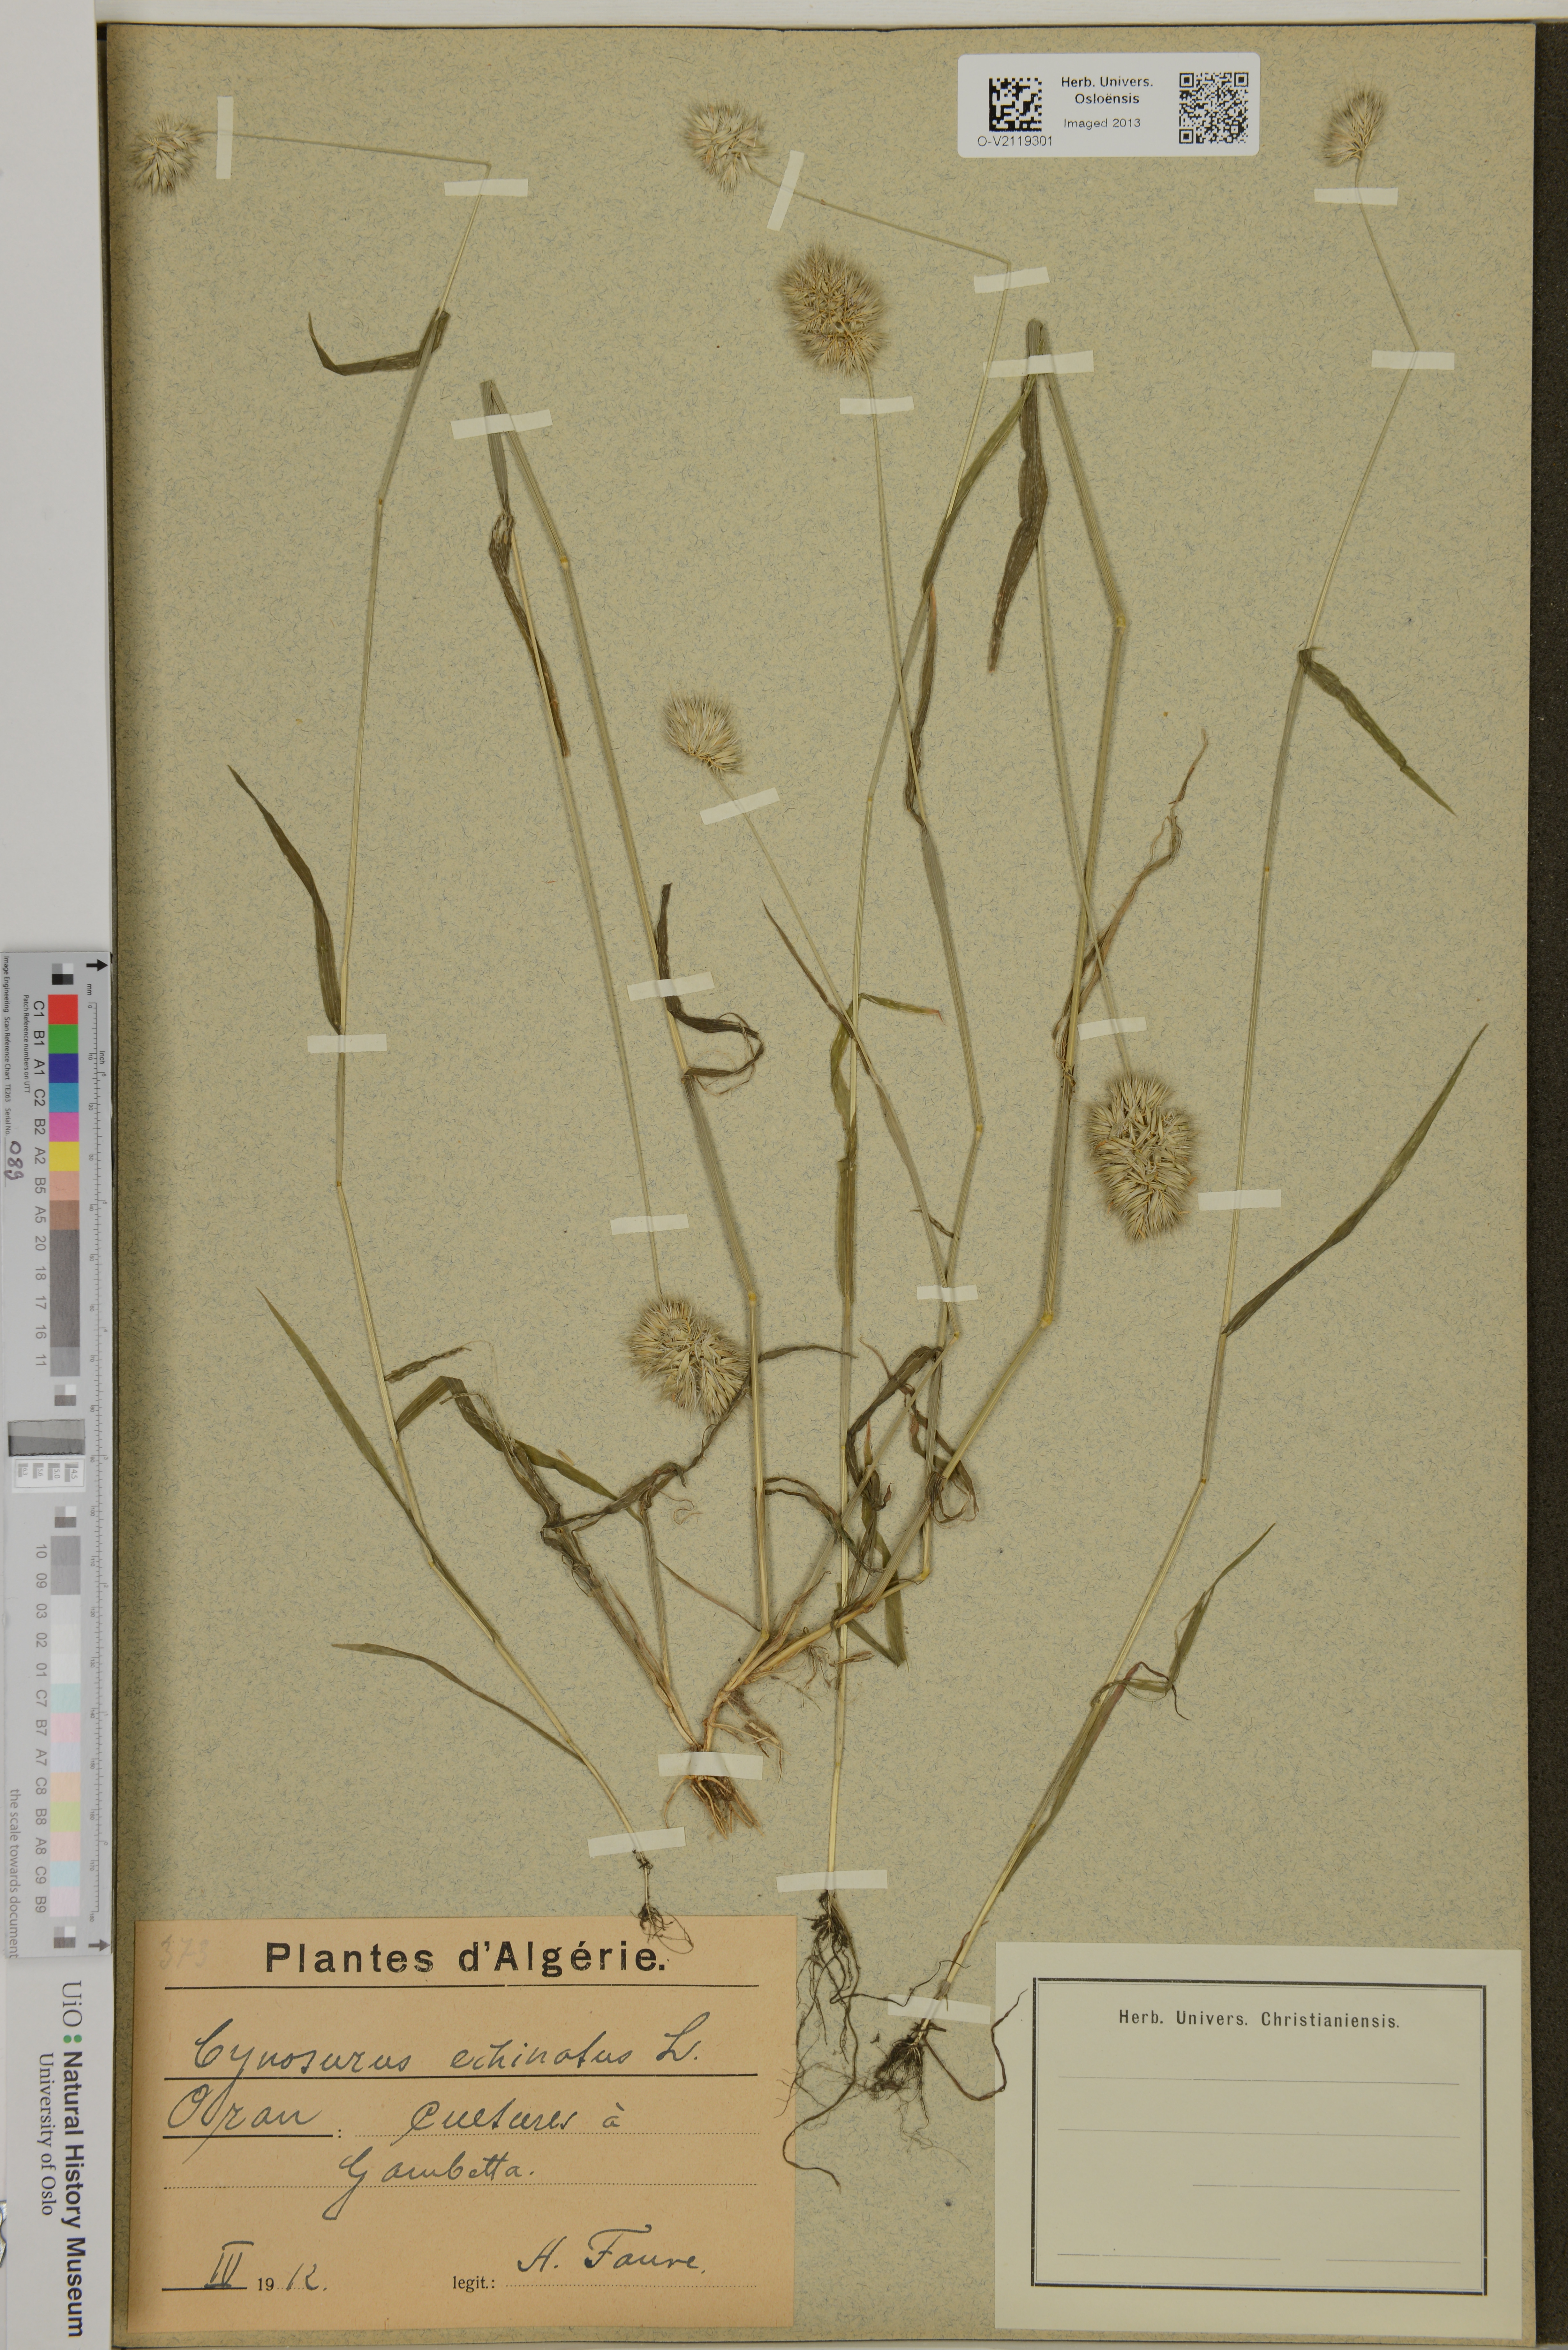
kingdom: Plantae
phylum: Tracheophyta
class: Liliopsida
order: Poales
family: Poaceae
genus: Cynosurus
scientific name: Cynosurus echinatus
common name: Rough dog's-tail
